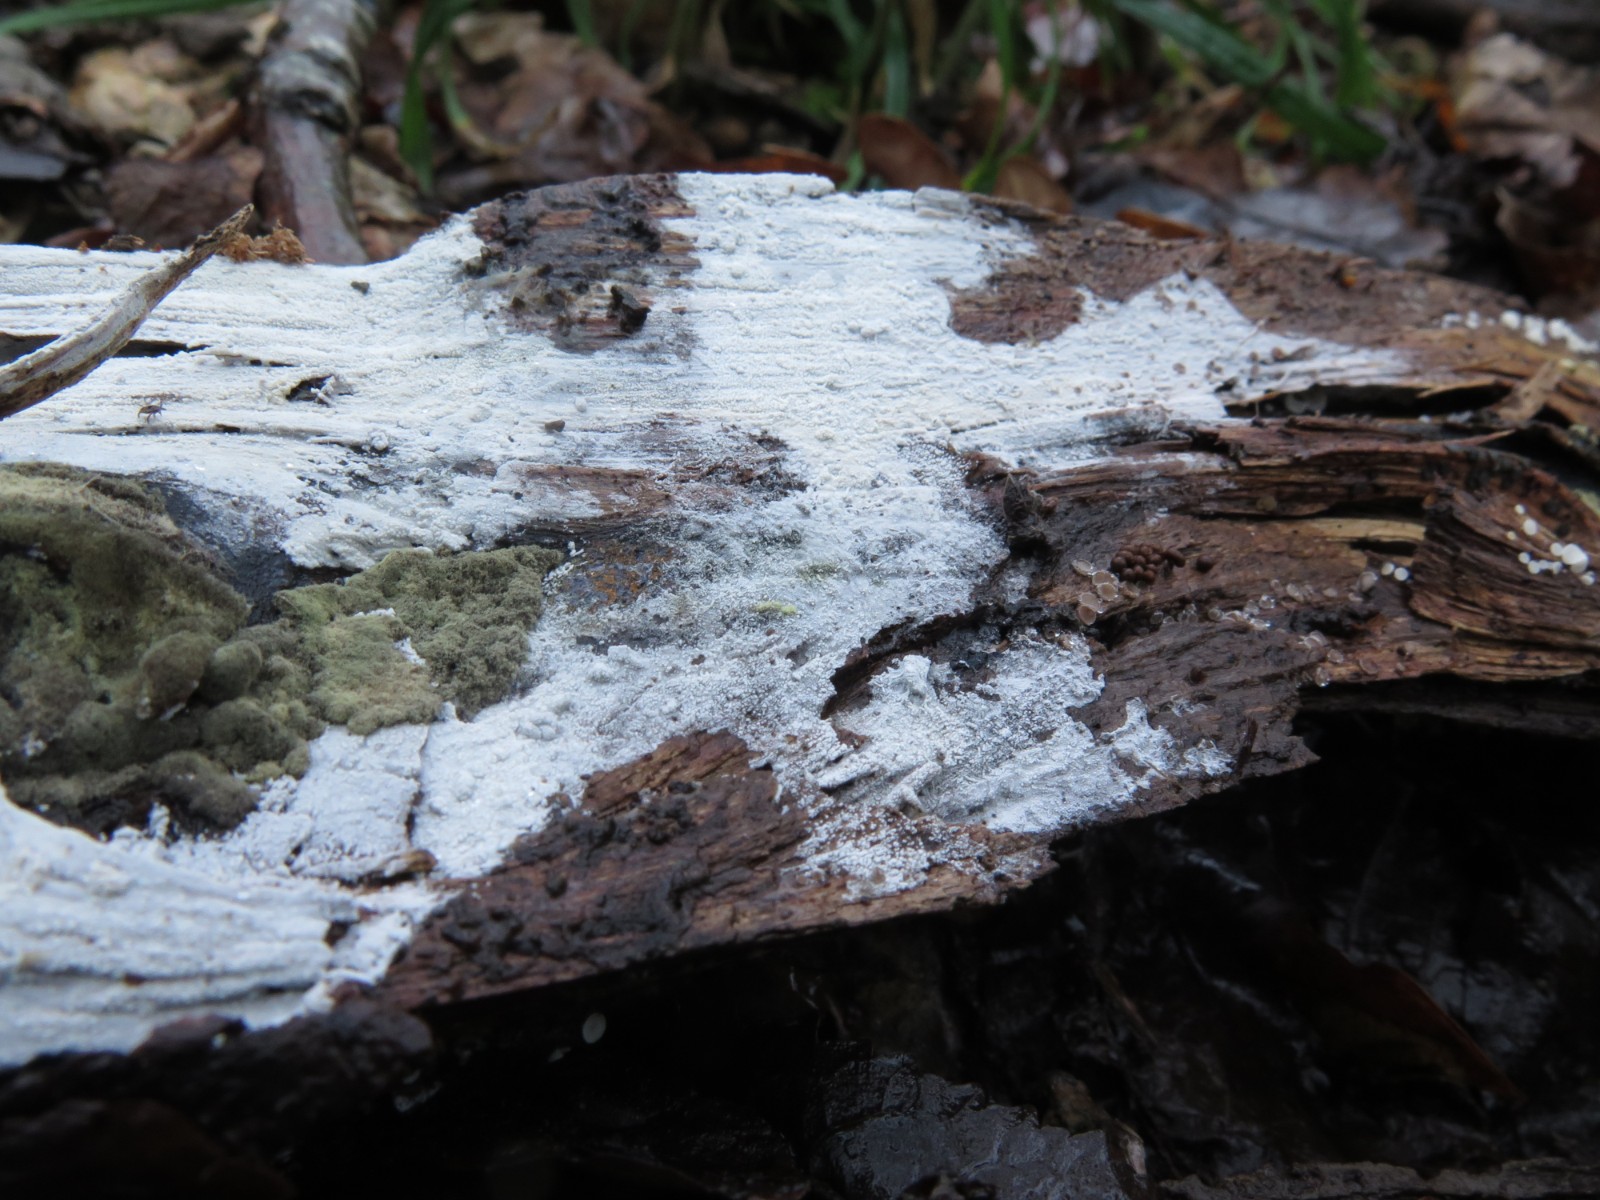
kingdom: Fungi
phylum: Basidiomycota
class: Agaricomycetes
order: Corticiales
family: Corticiaceae
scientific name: Corticiaceae
